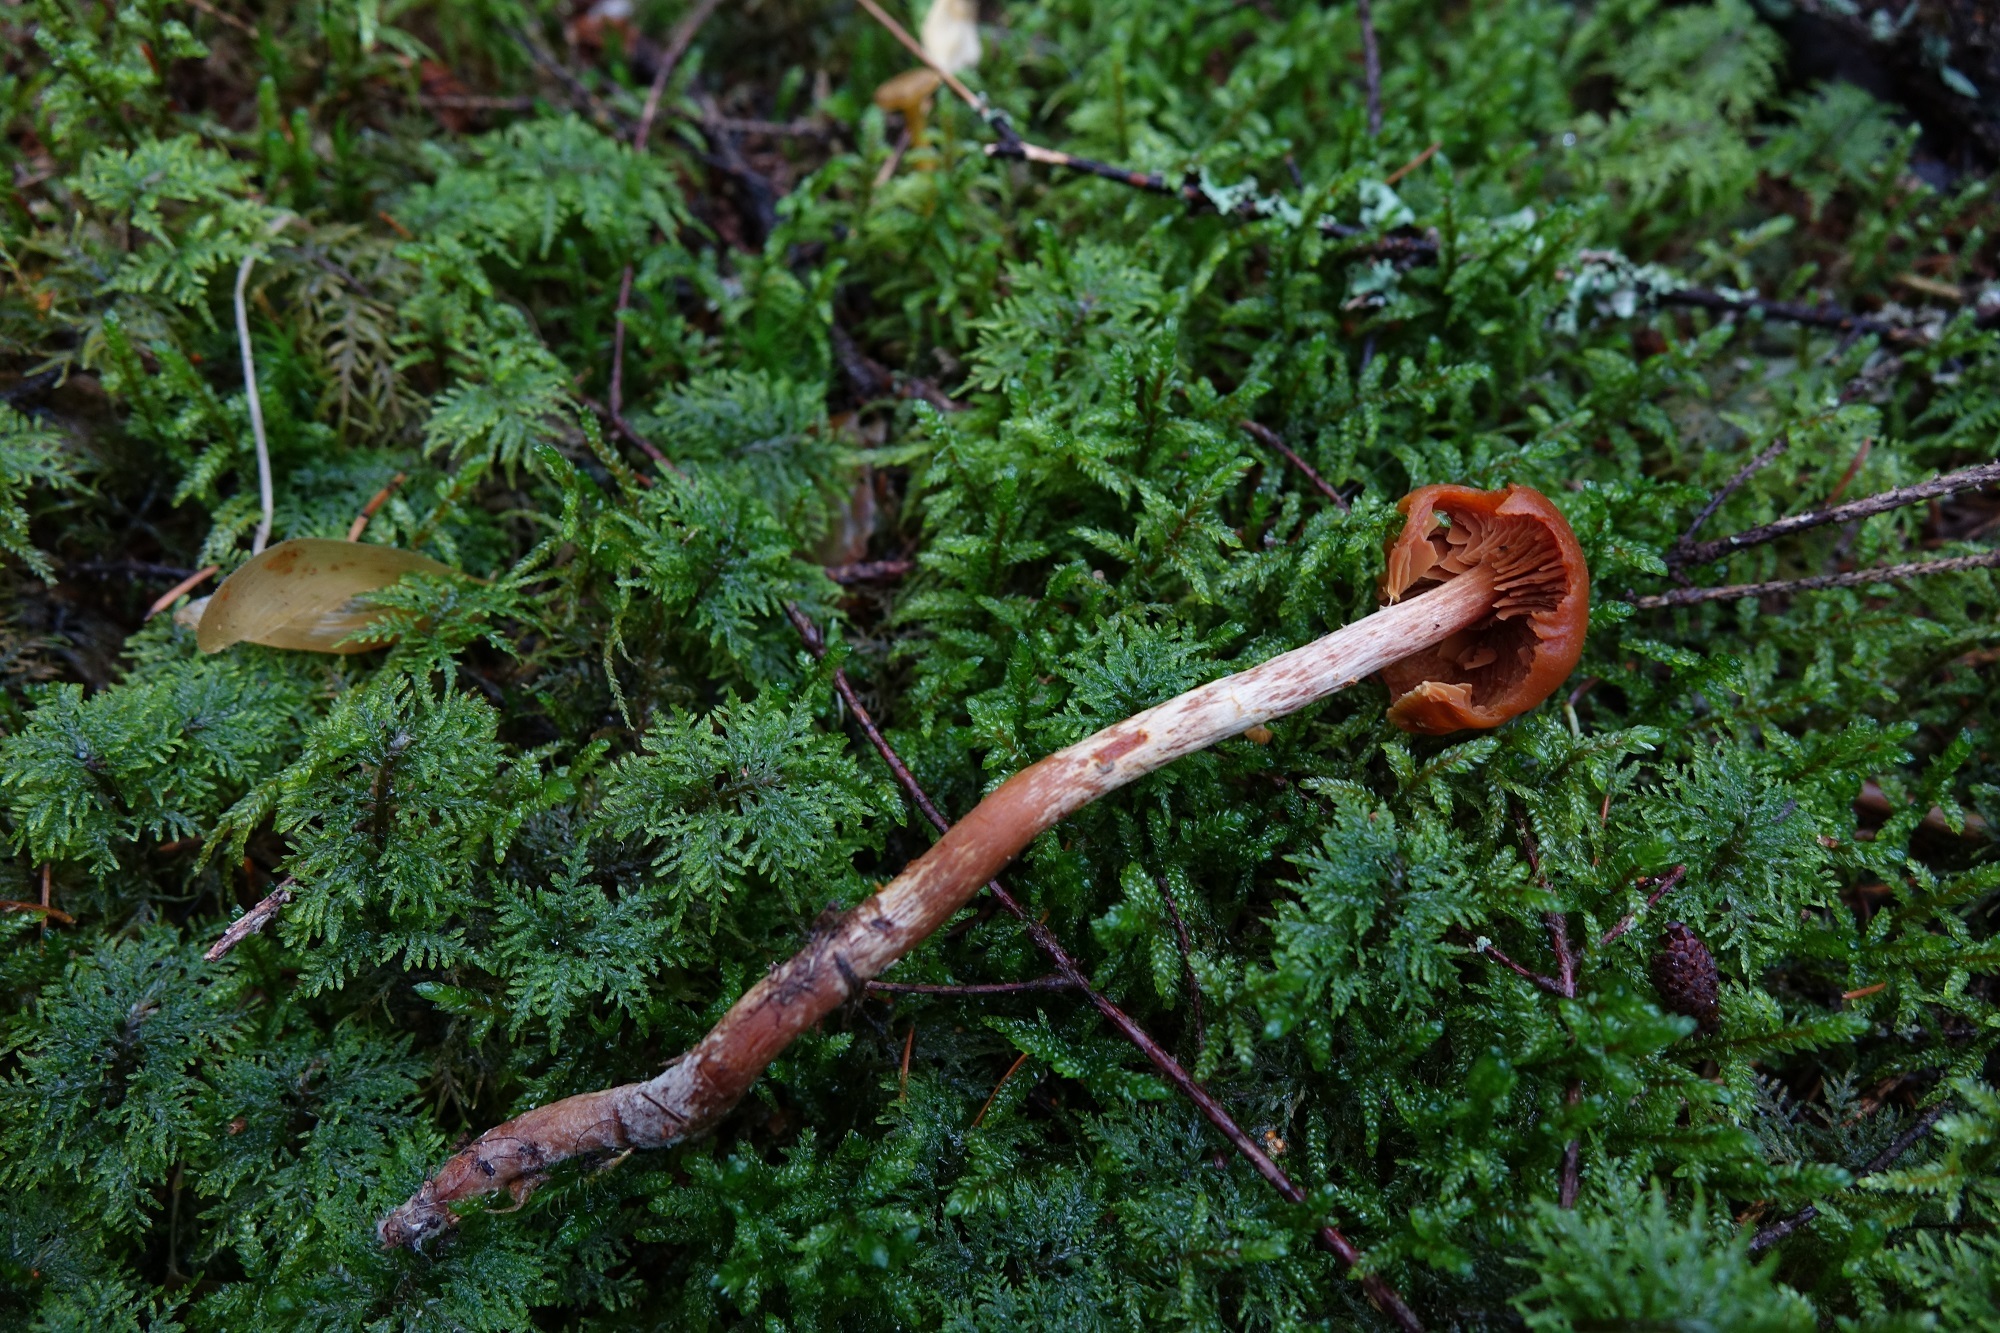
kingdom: Fungi
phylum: Basidiomycota
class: Agaricomycetes
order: Agaricales
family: Hymenogastraceae
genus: Phaeocollybia
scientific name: Phaeocollybia
